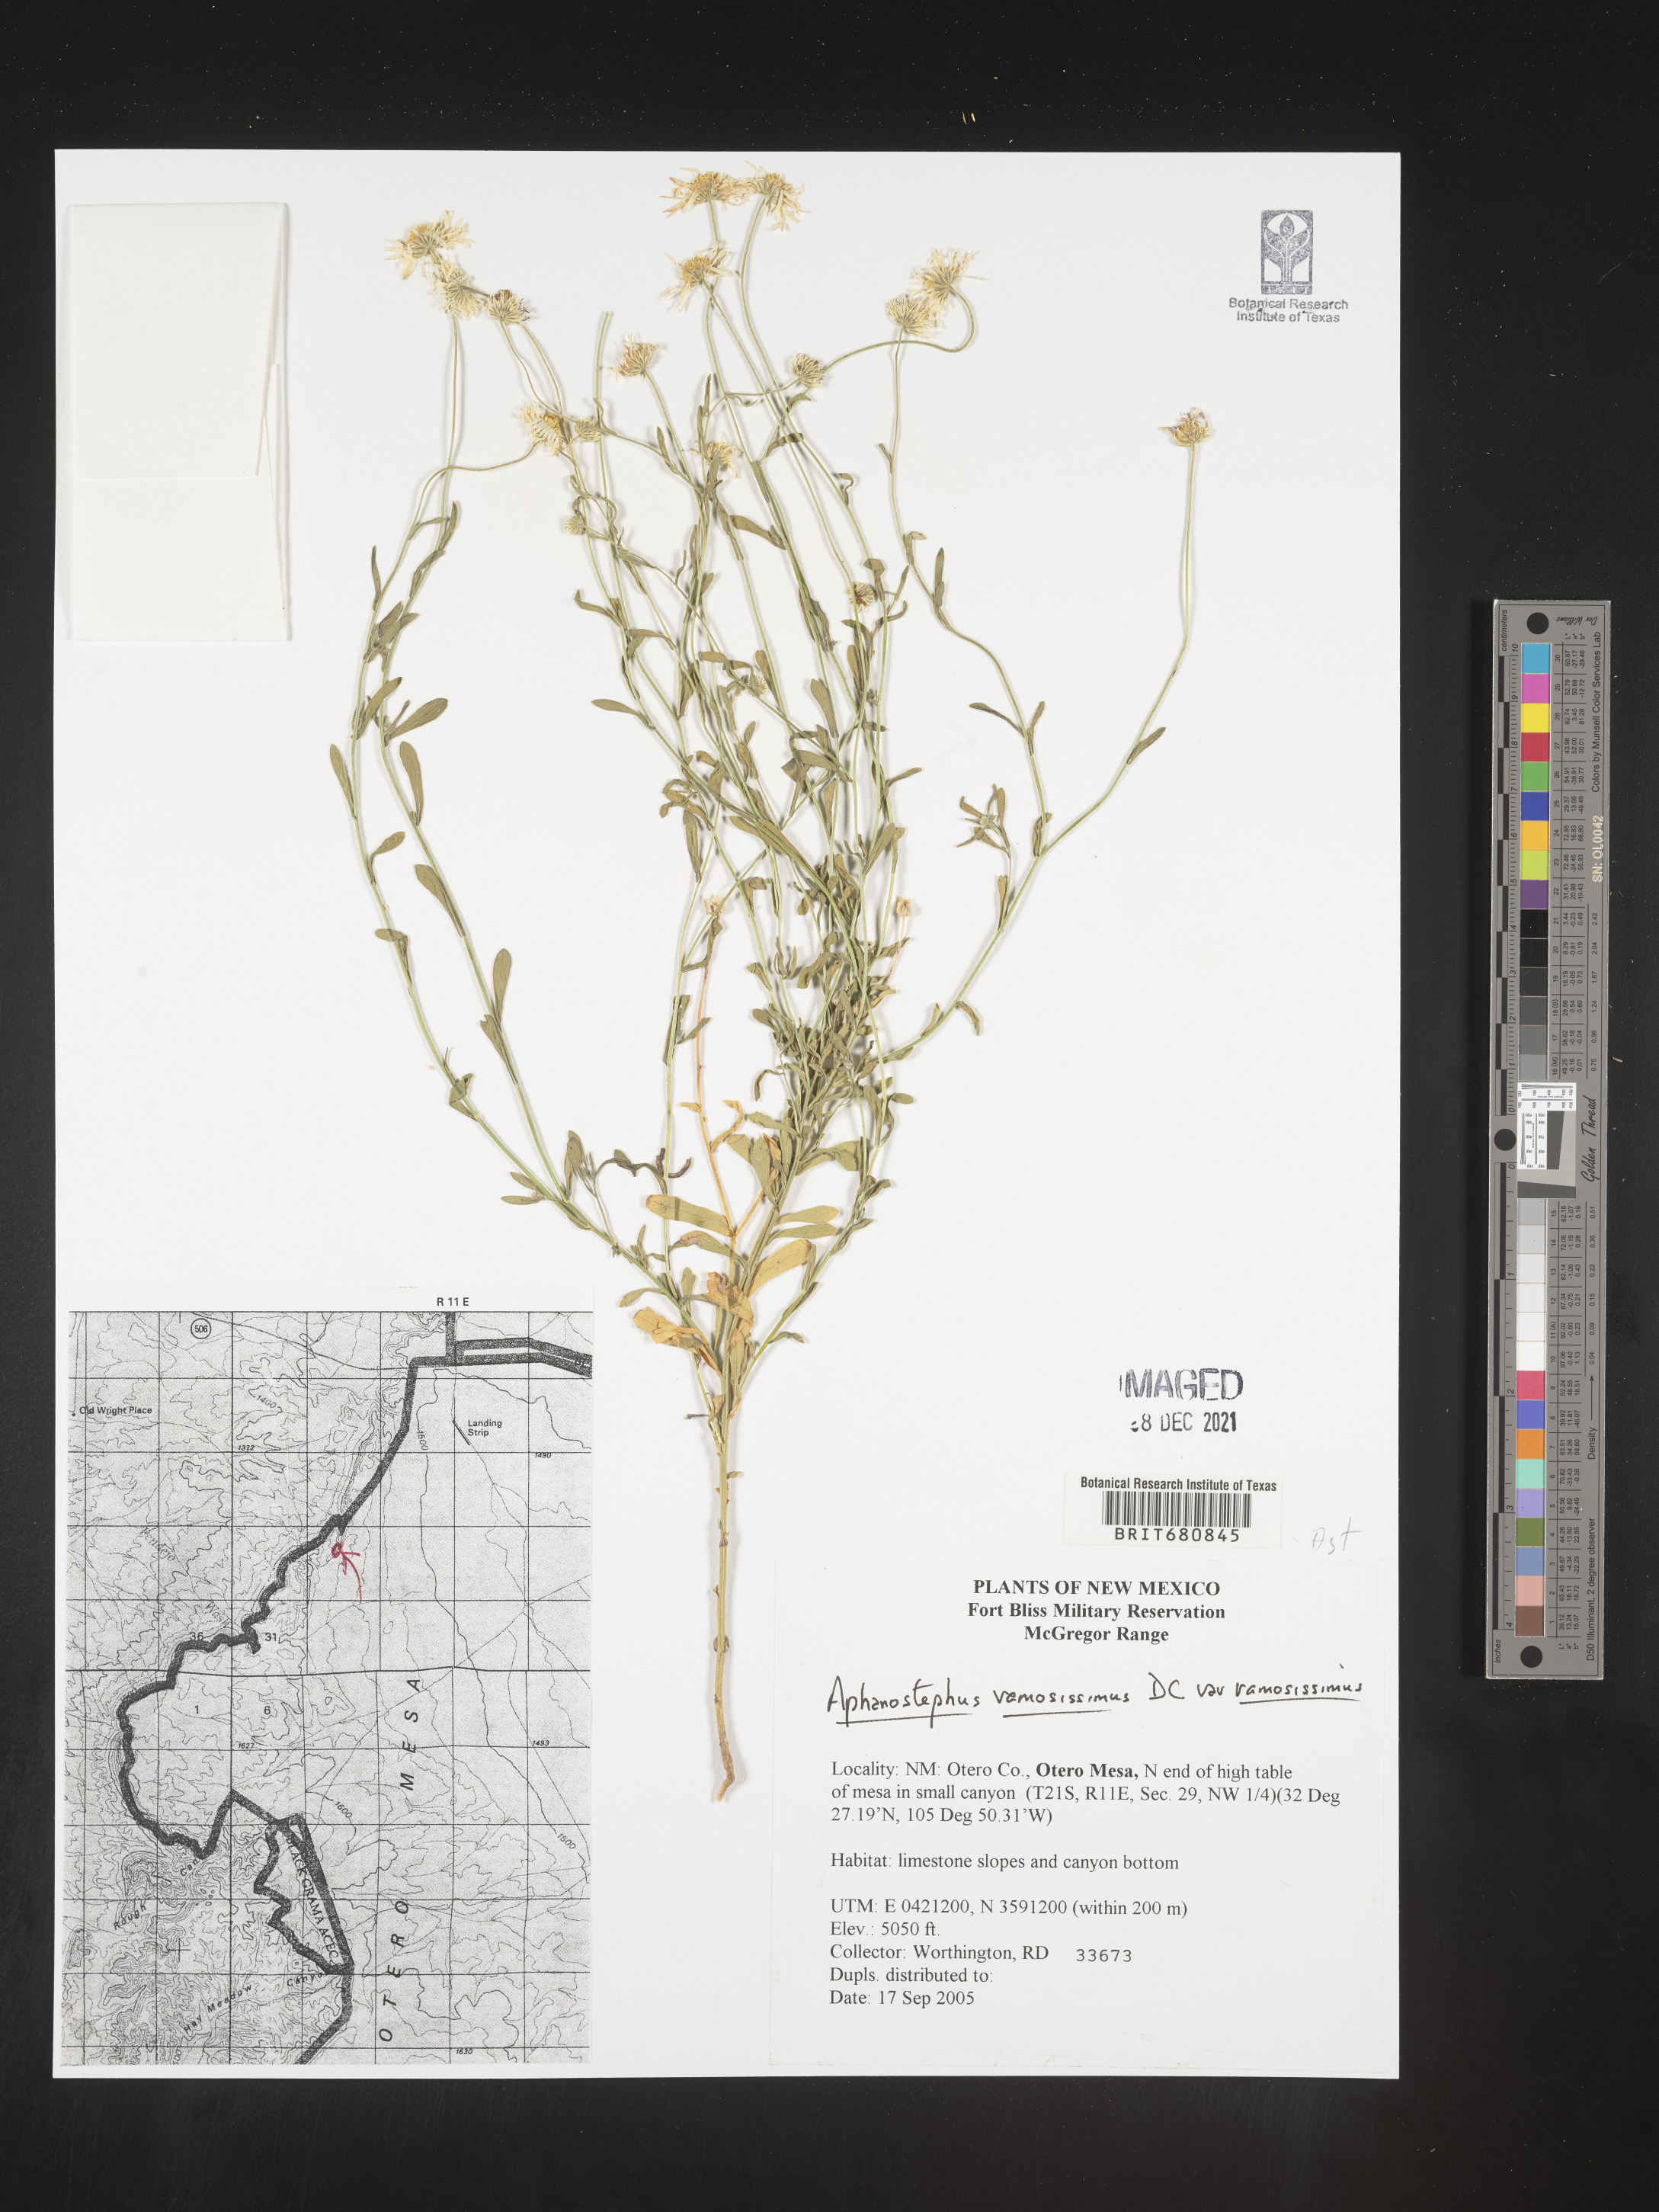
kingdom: Plantae
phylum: Tracheophyta
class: Magnoliopsida
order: Asterales
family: Asteraceae
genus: Aphanostephus
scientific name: Aphanostephus ramosissimus
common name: Plains lazy daisy
